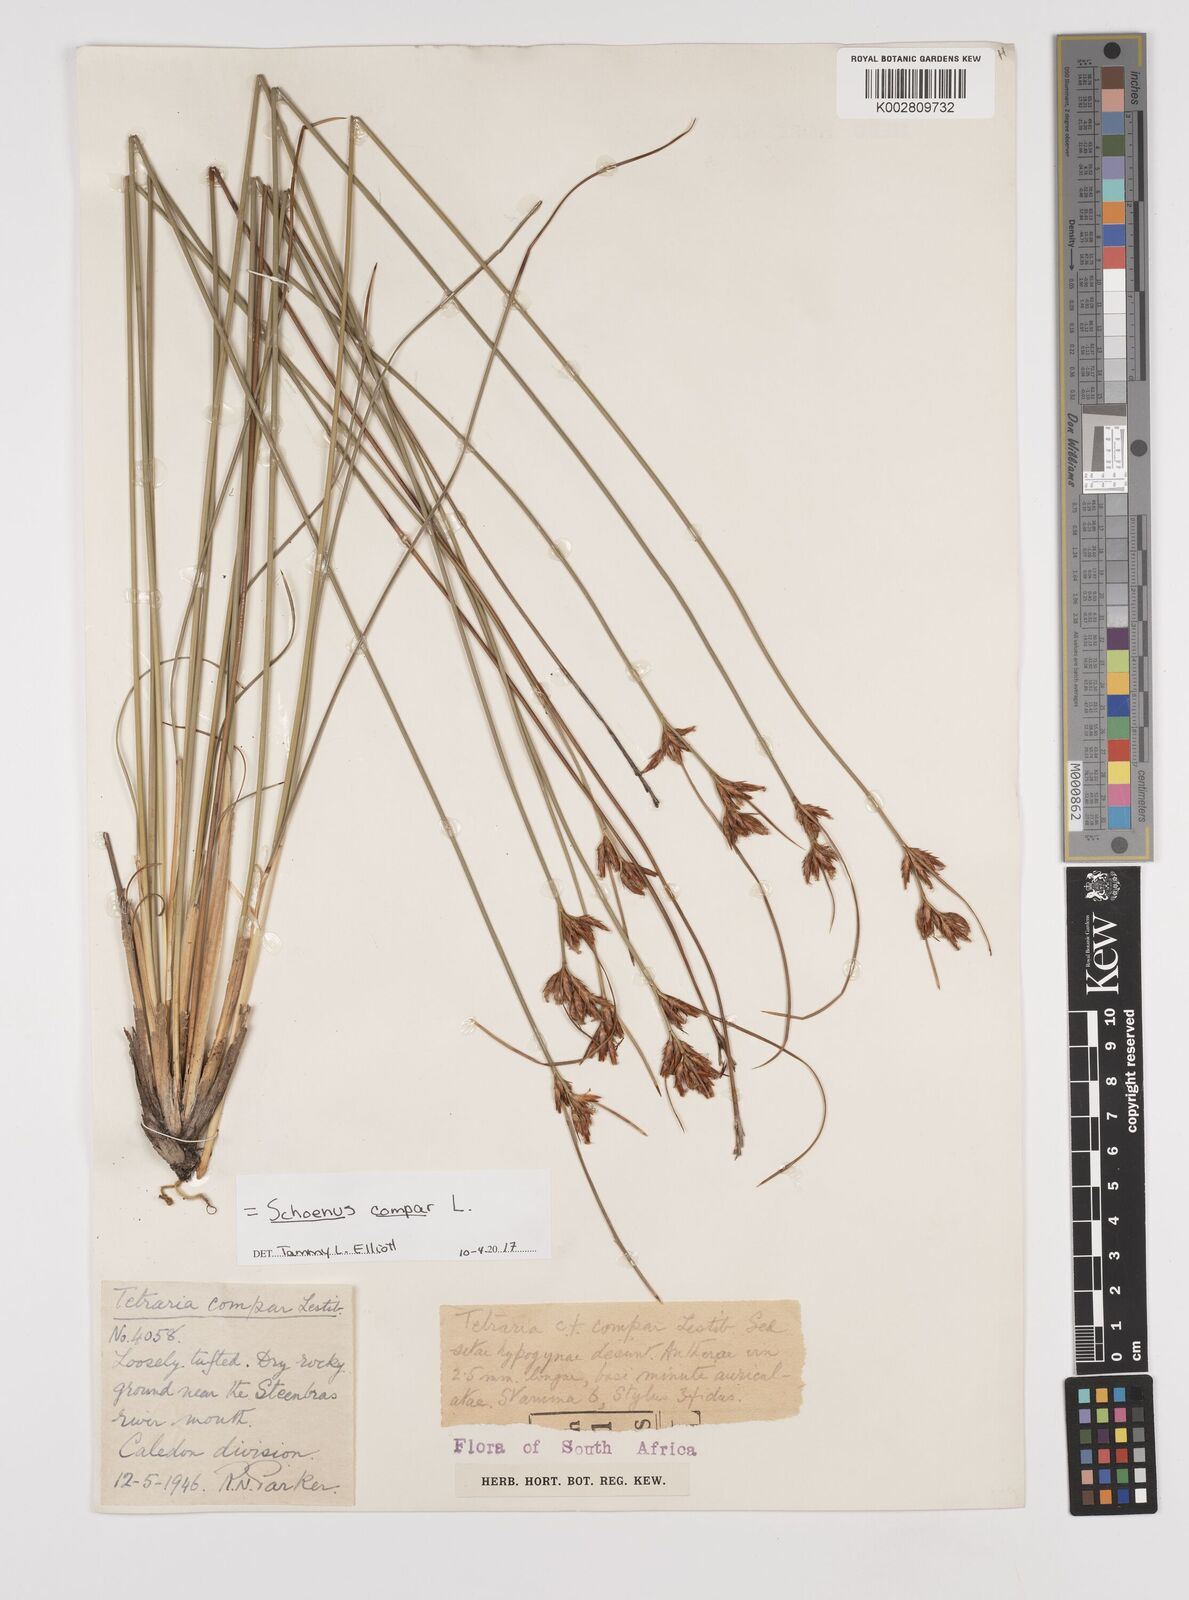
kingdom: Plantae
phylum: Tracheophyta
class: Liliopsida
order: Poales
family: Cyperaceae
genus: Schoenus
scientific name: Schoenus compar
